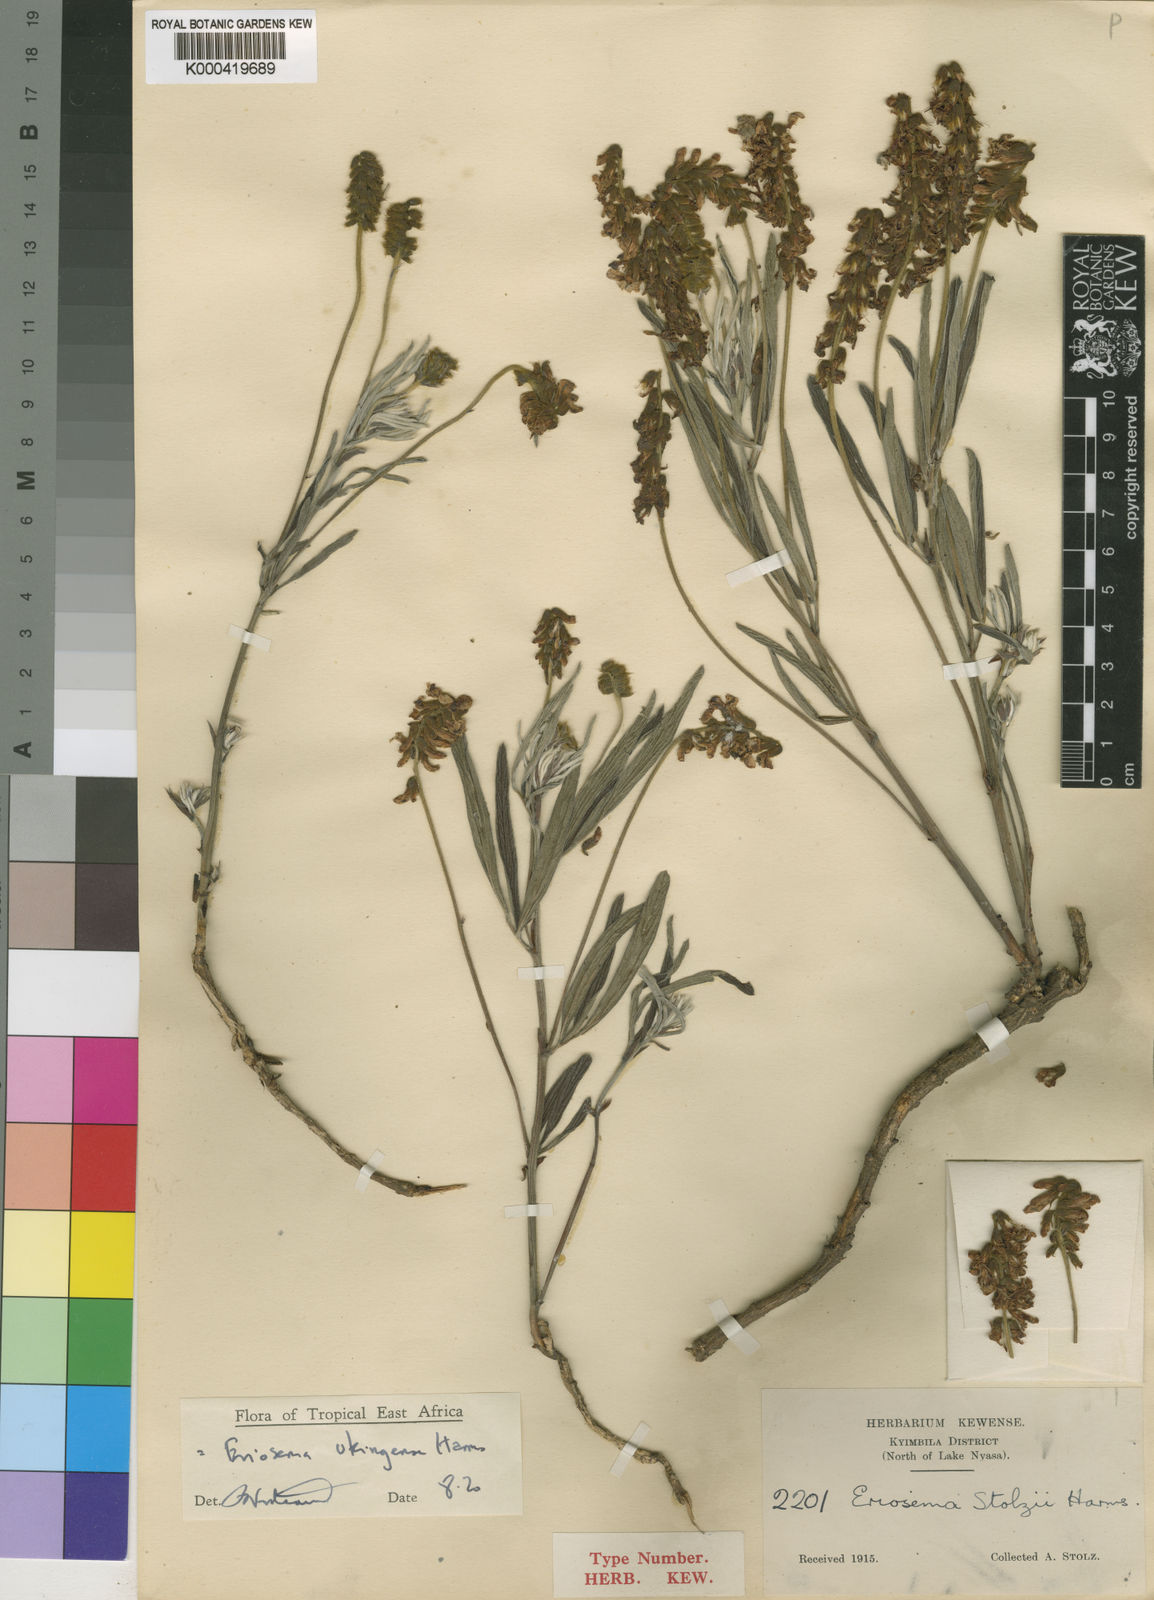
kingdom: Plantae
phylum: Tracheophyta
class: Magnoliopsida
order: Fabales
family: Fabaceae
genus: Eriosema
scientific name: Eriosema ukingense
